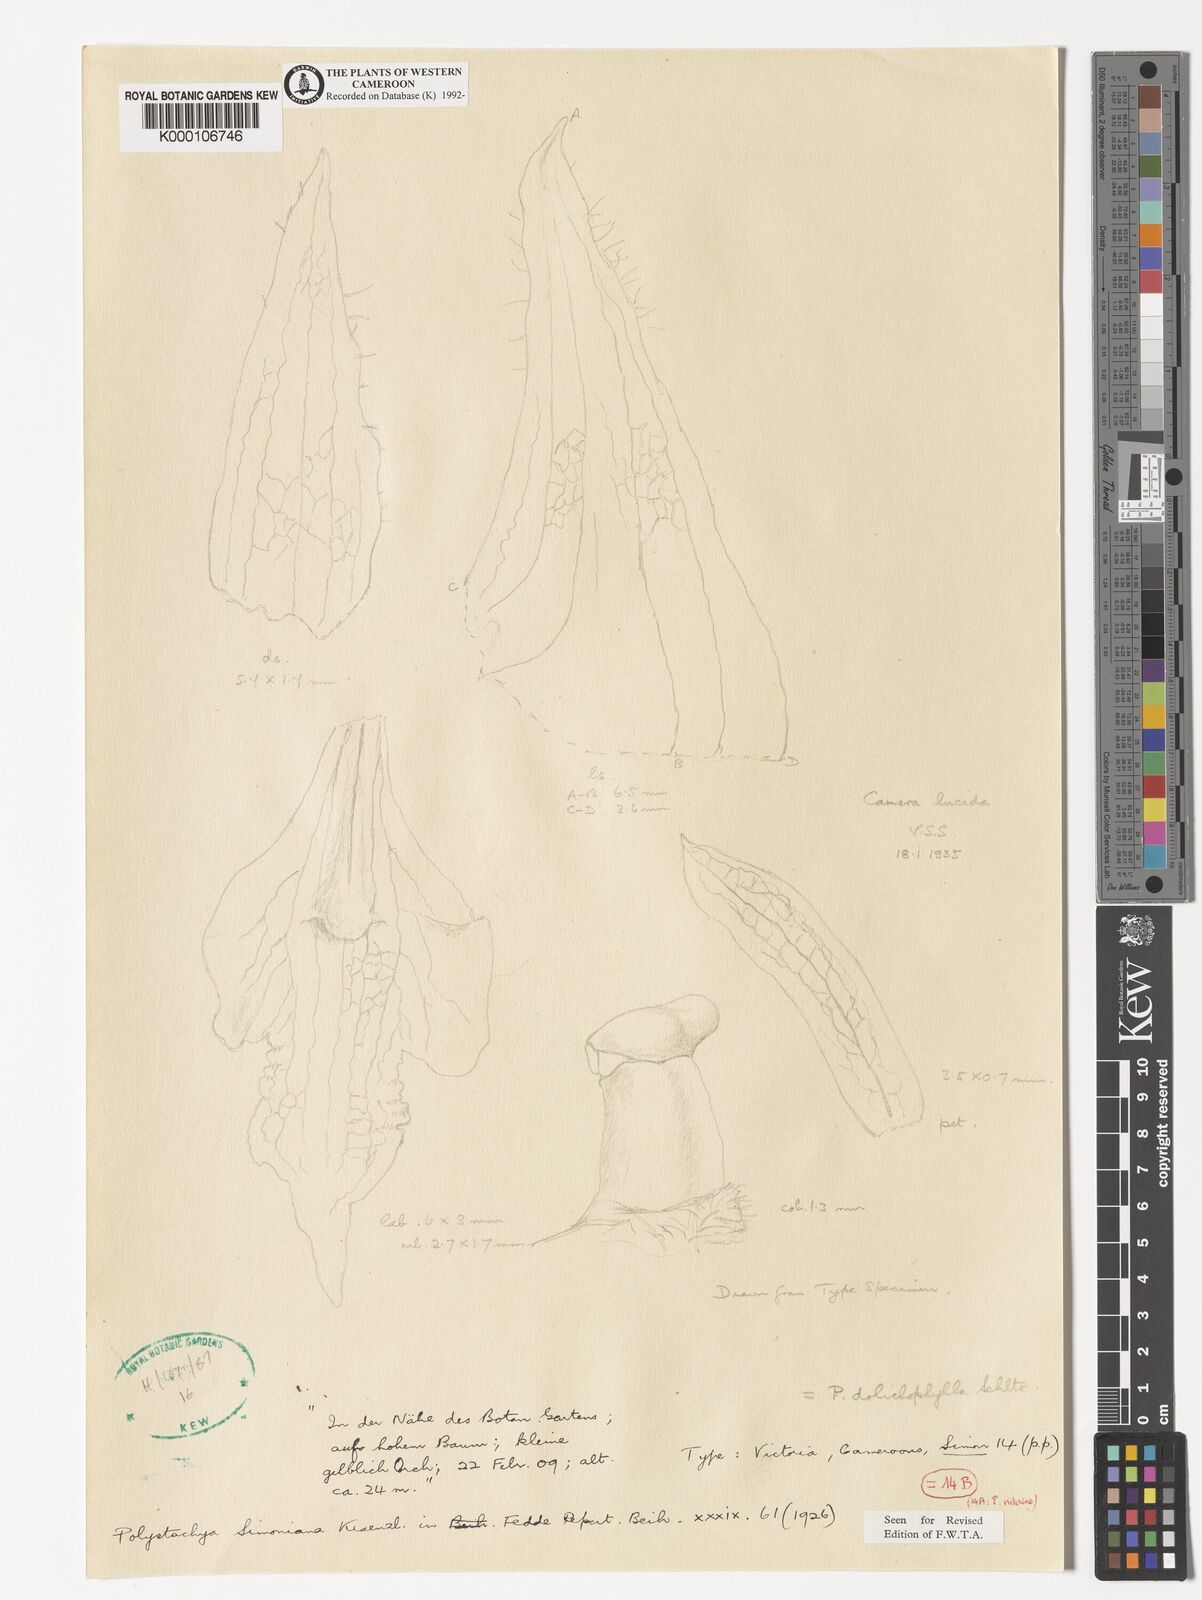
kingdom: Plantae
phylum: Tracheophyta
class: Liliopsida
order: Asparagales
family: Orchidaceae
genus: Polystachya
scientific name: Polystachya dolichophylla
